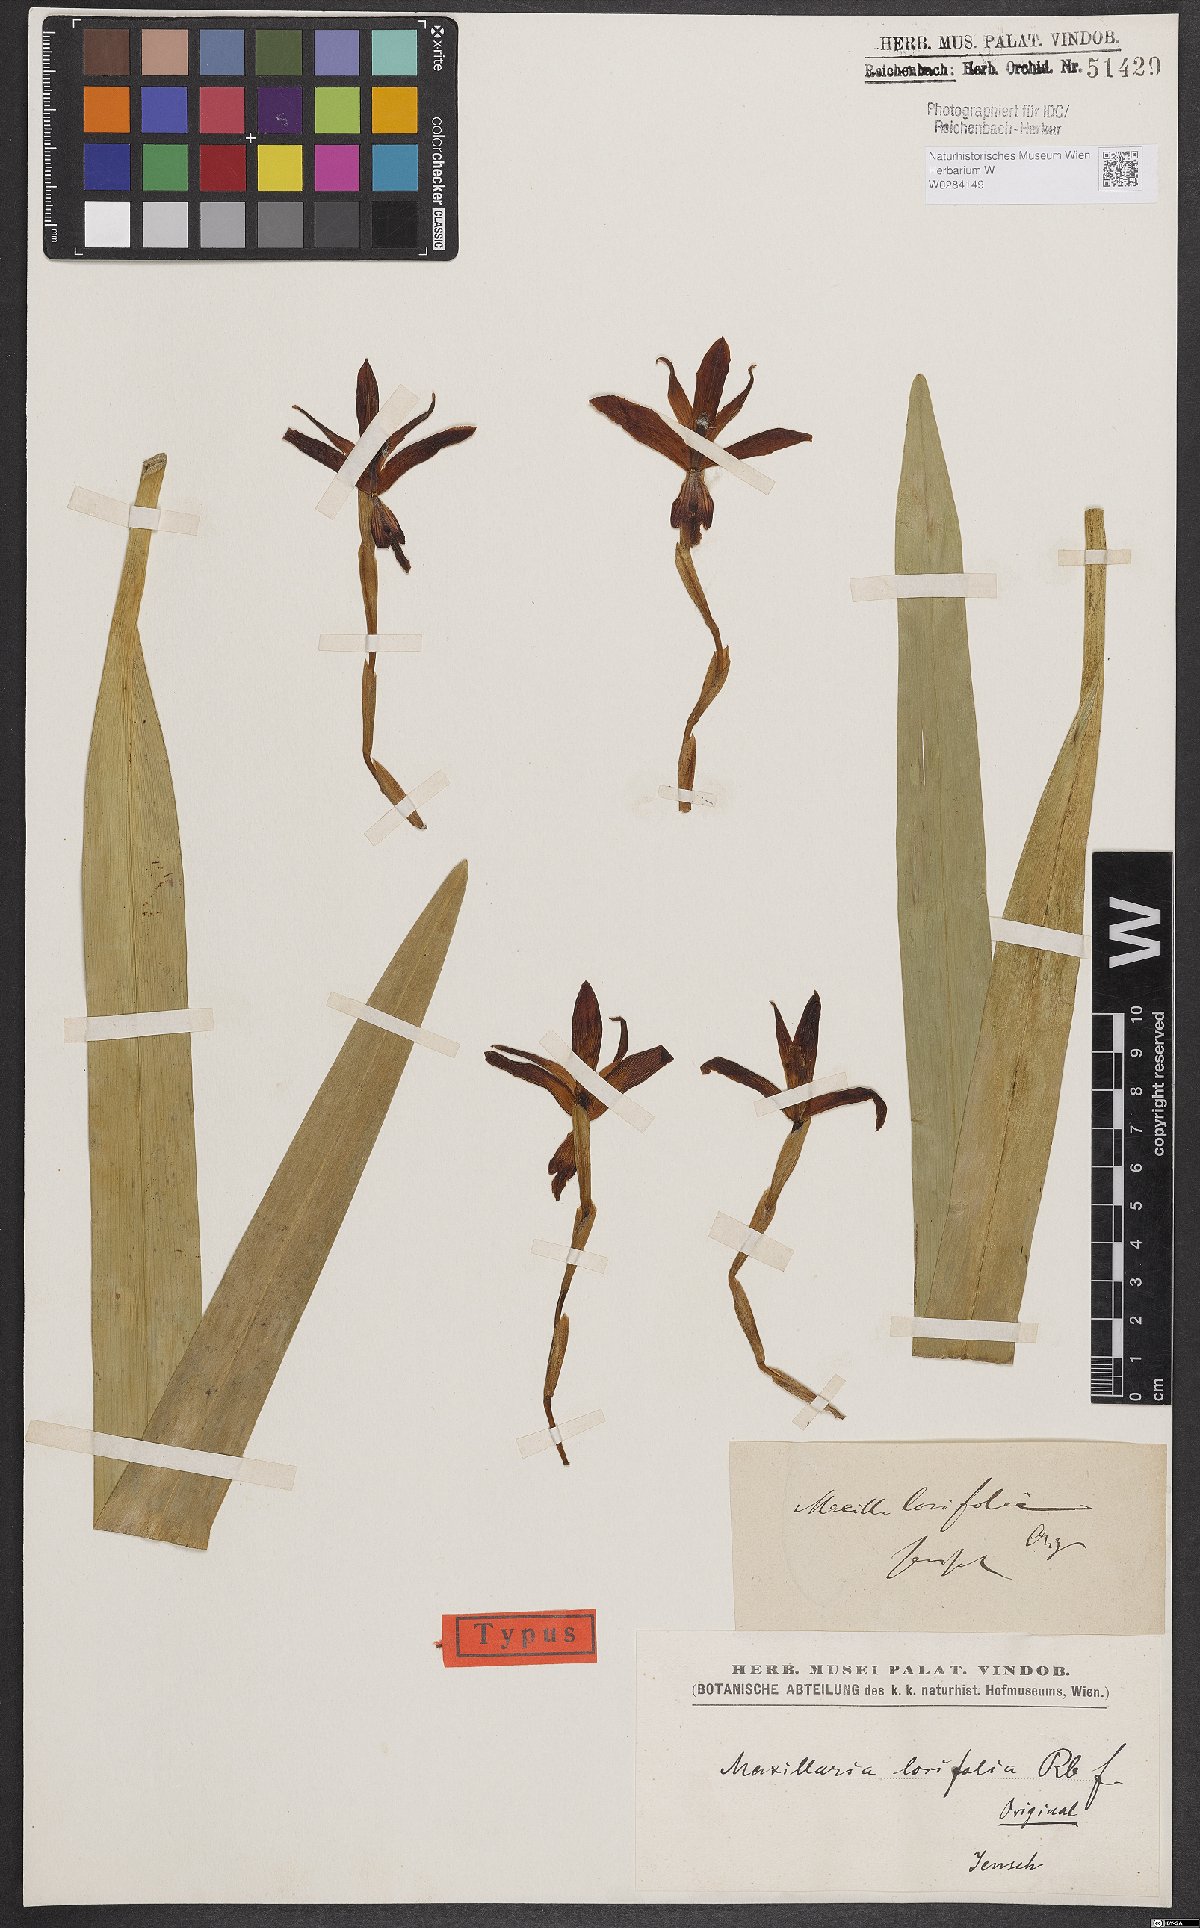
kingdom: Plantae
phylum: Tracheophyta
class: Liliopsida
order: Asparagales
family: Orchidaceae
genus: Maxillaria
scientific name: Maxillaria parkeri
